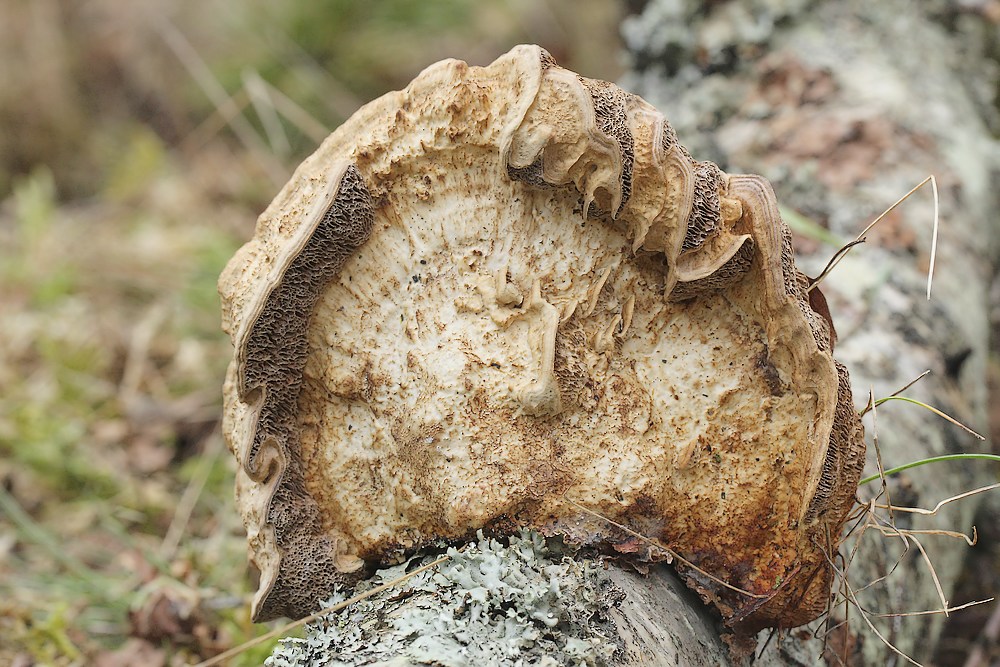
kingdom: Fungi
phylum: Basidiomycota
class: Agaricomycetes
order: Polyporales
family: Polyporaceae
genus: Daedaleopsis
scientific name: Daedaleopsis confragosa
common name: rødmende læderporesvamp
